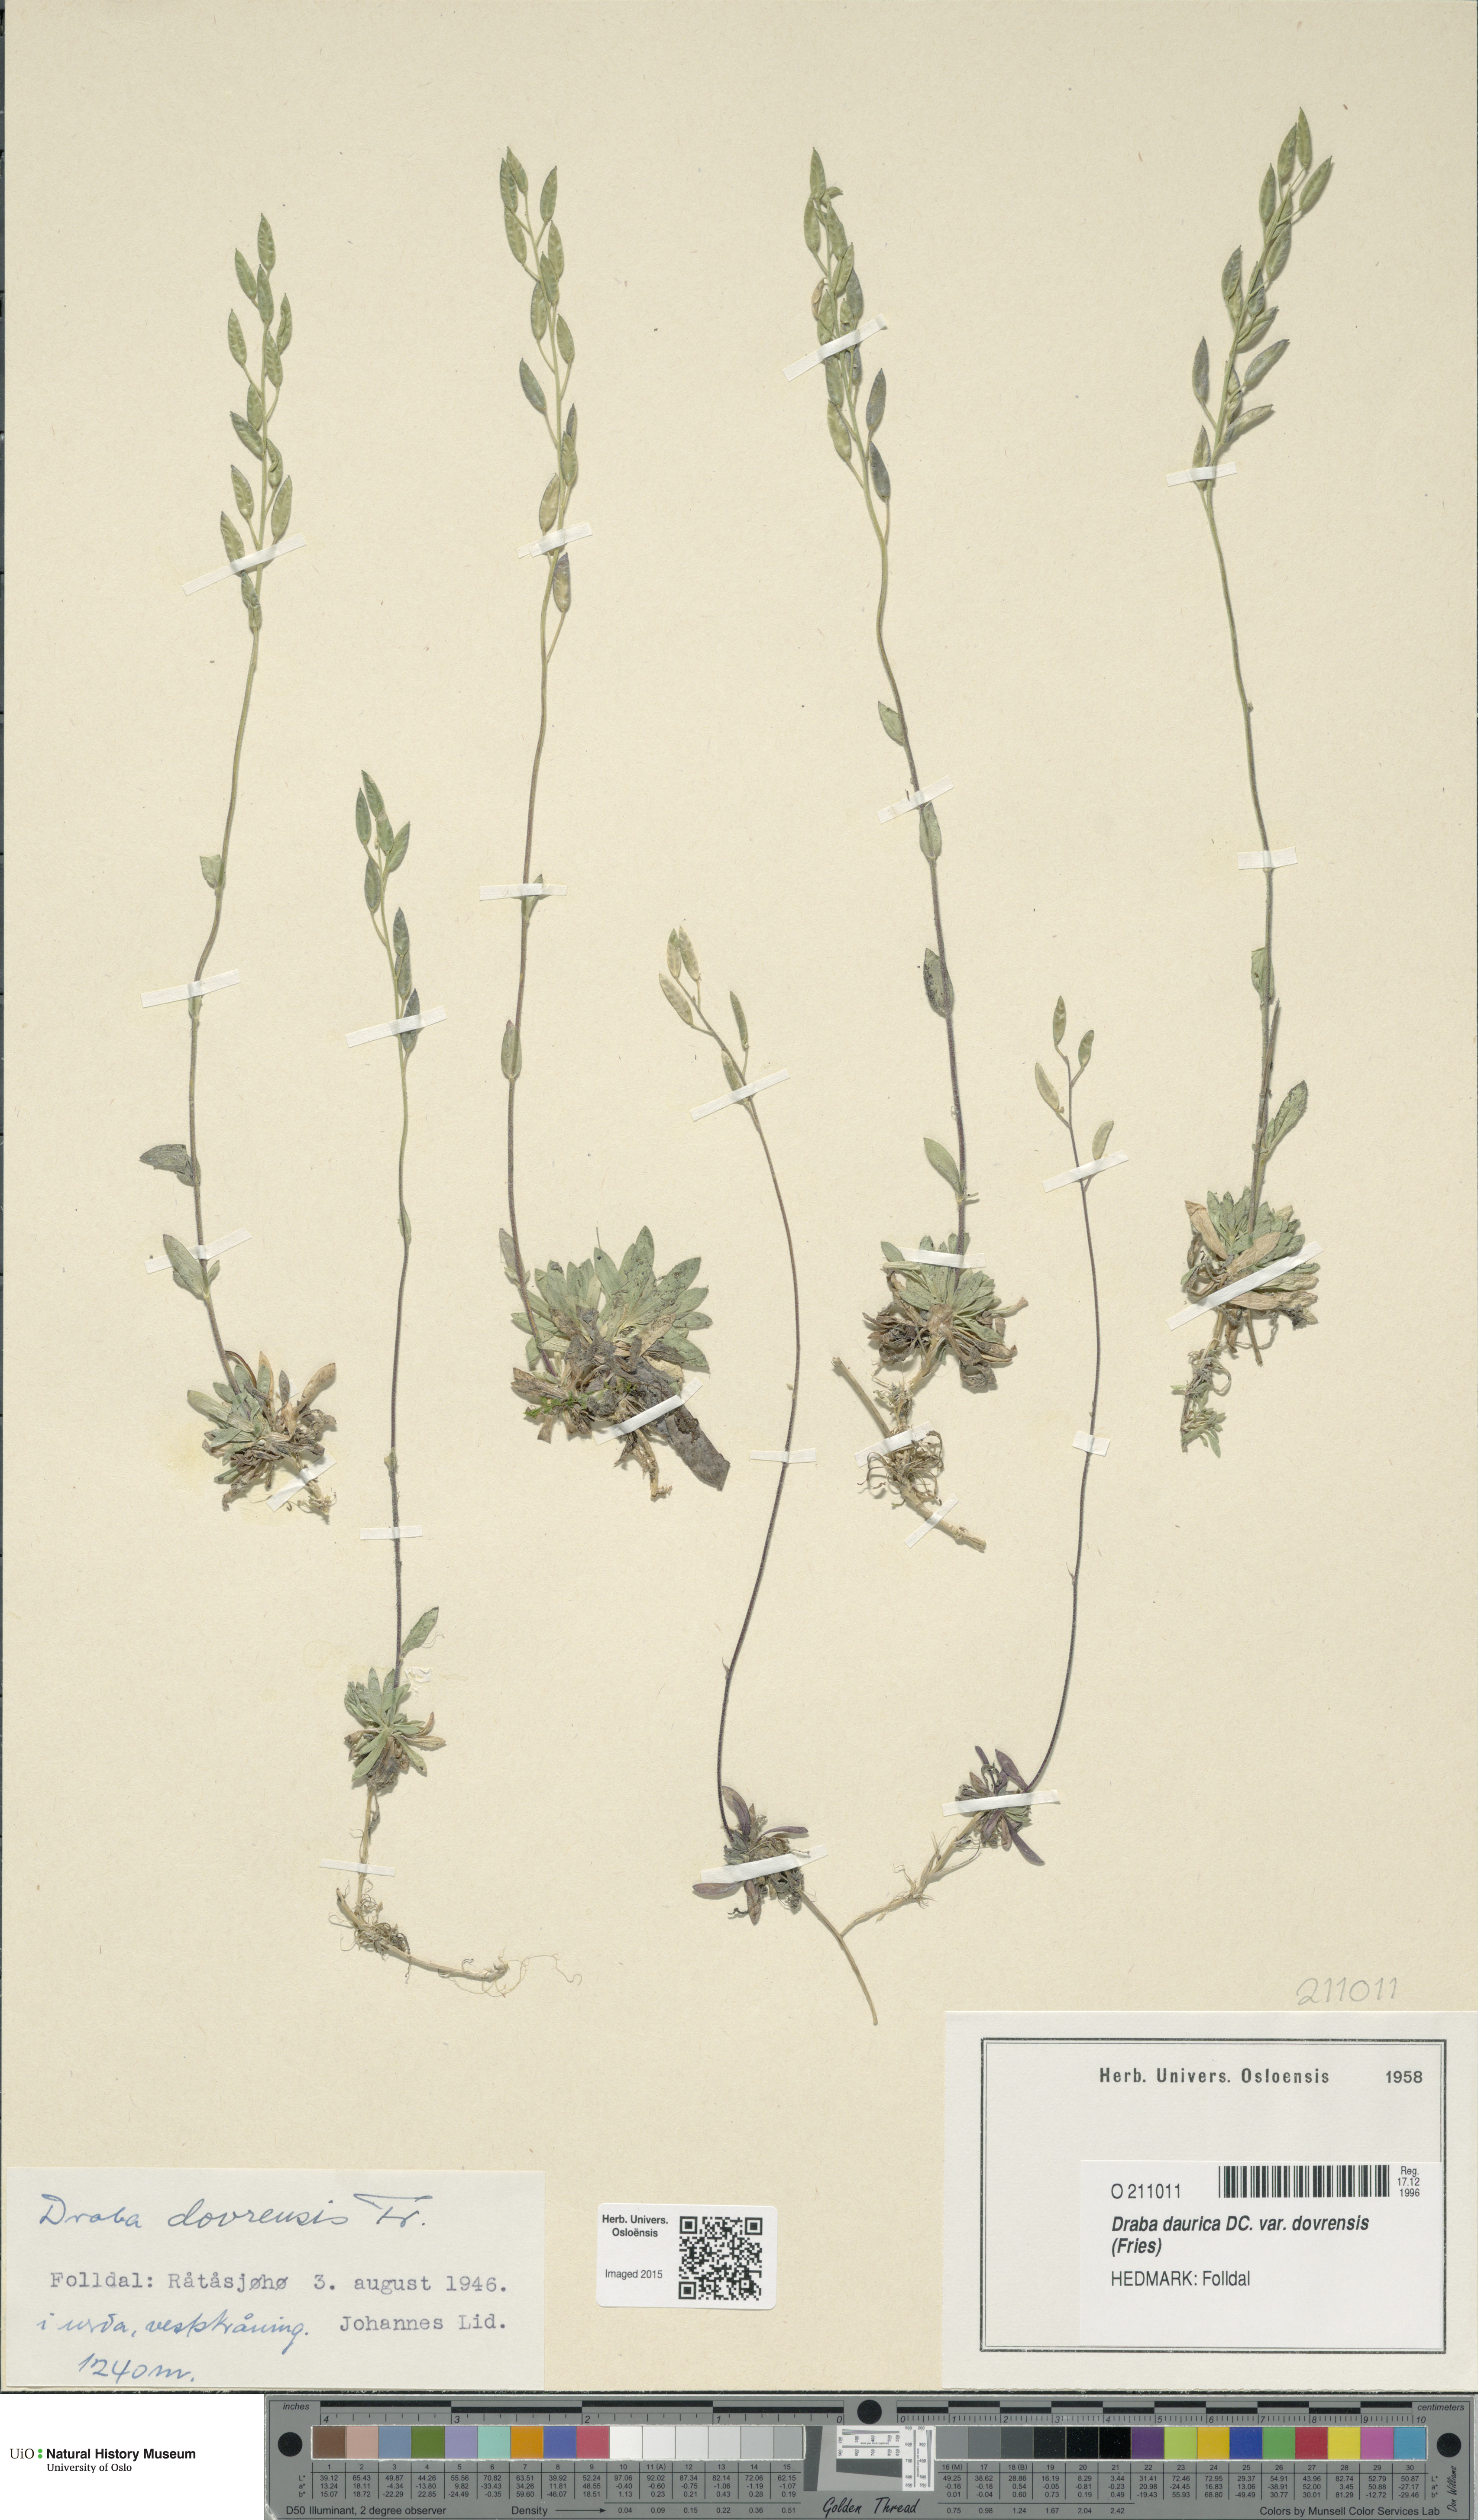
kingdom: Plantae
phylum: Tracheophyta
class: Magnoliopsida
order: Brassicales
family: Brassicaceae
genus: Draba
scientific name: Draba glabella
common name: Glaucous draba
